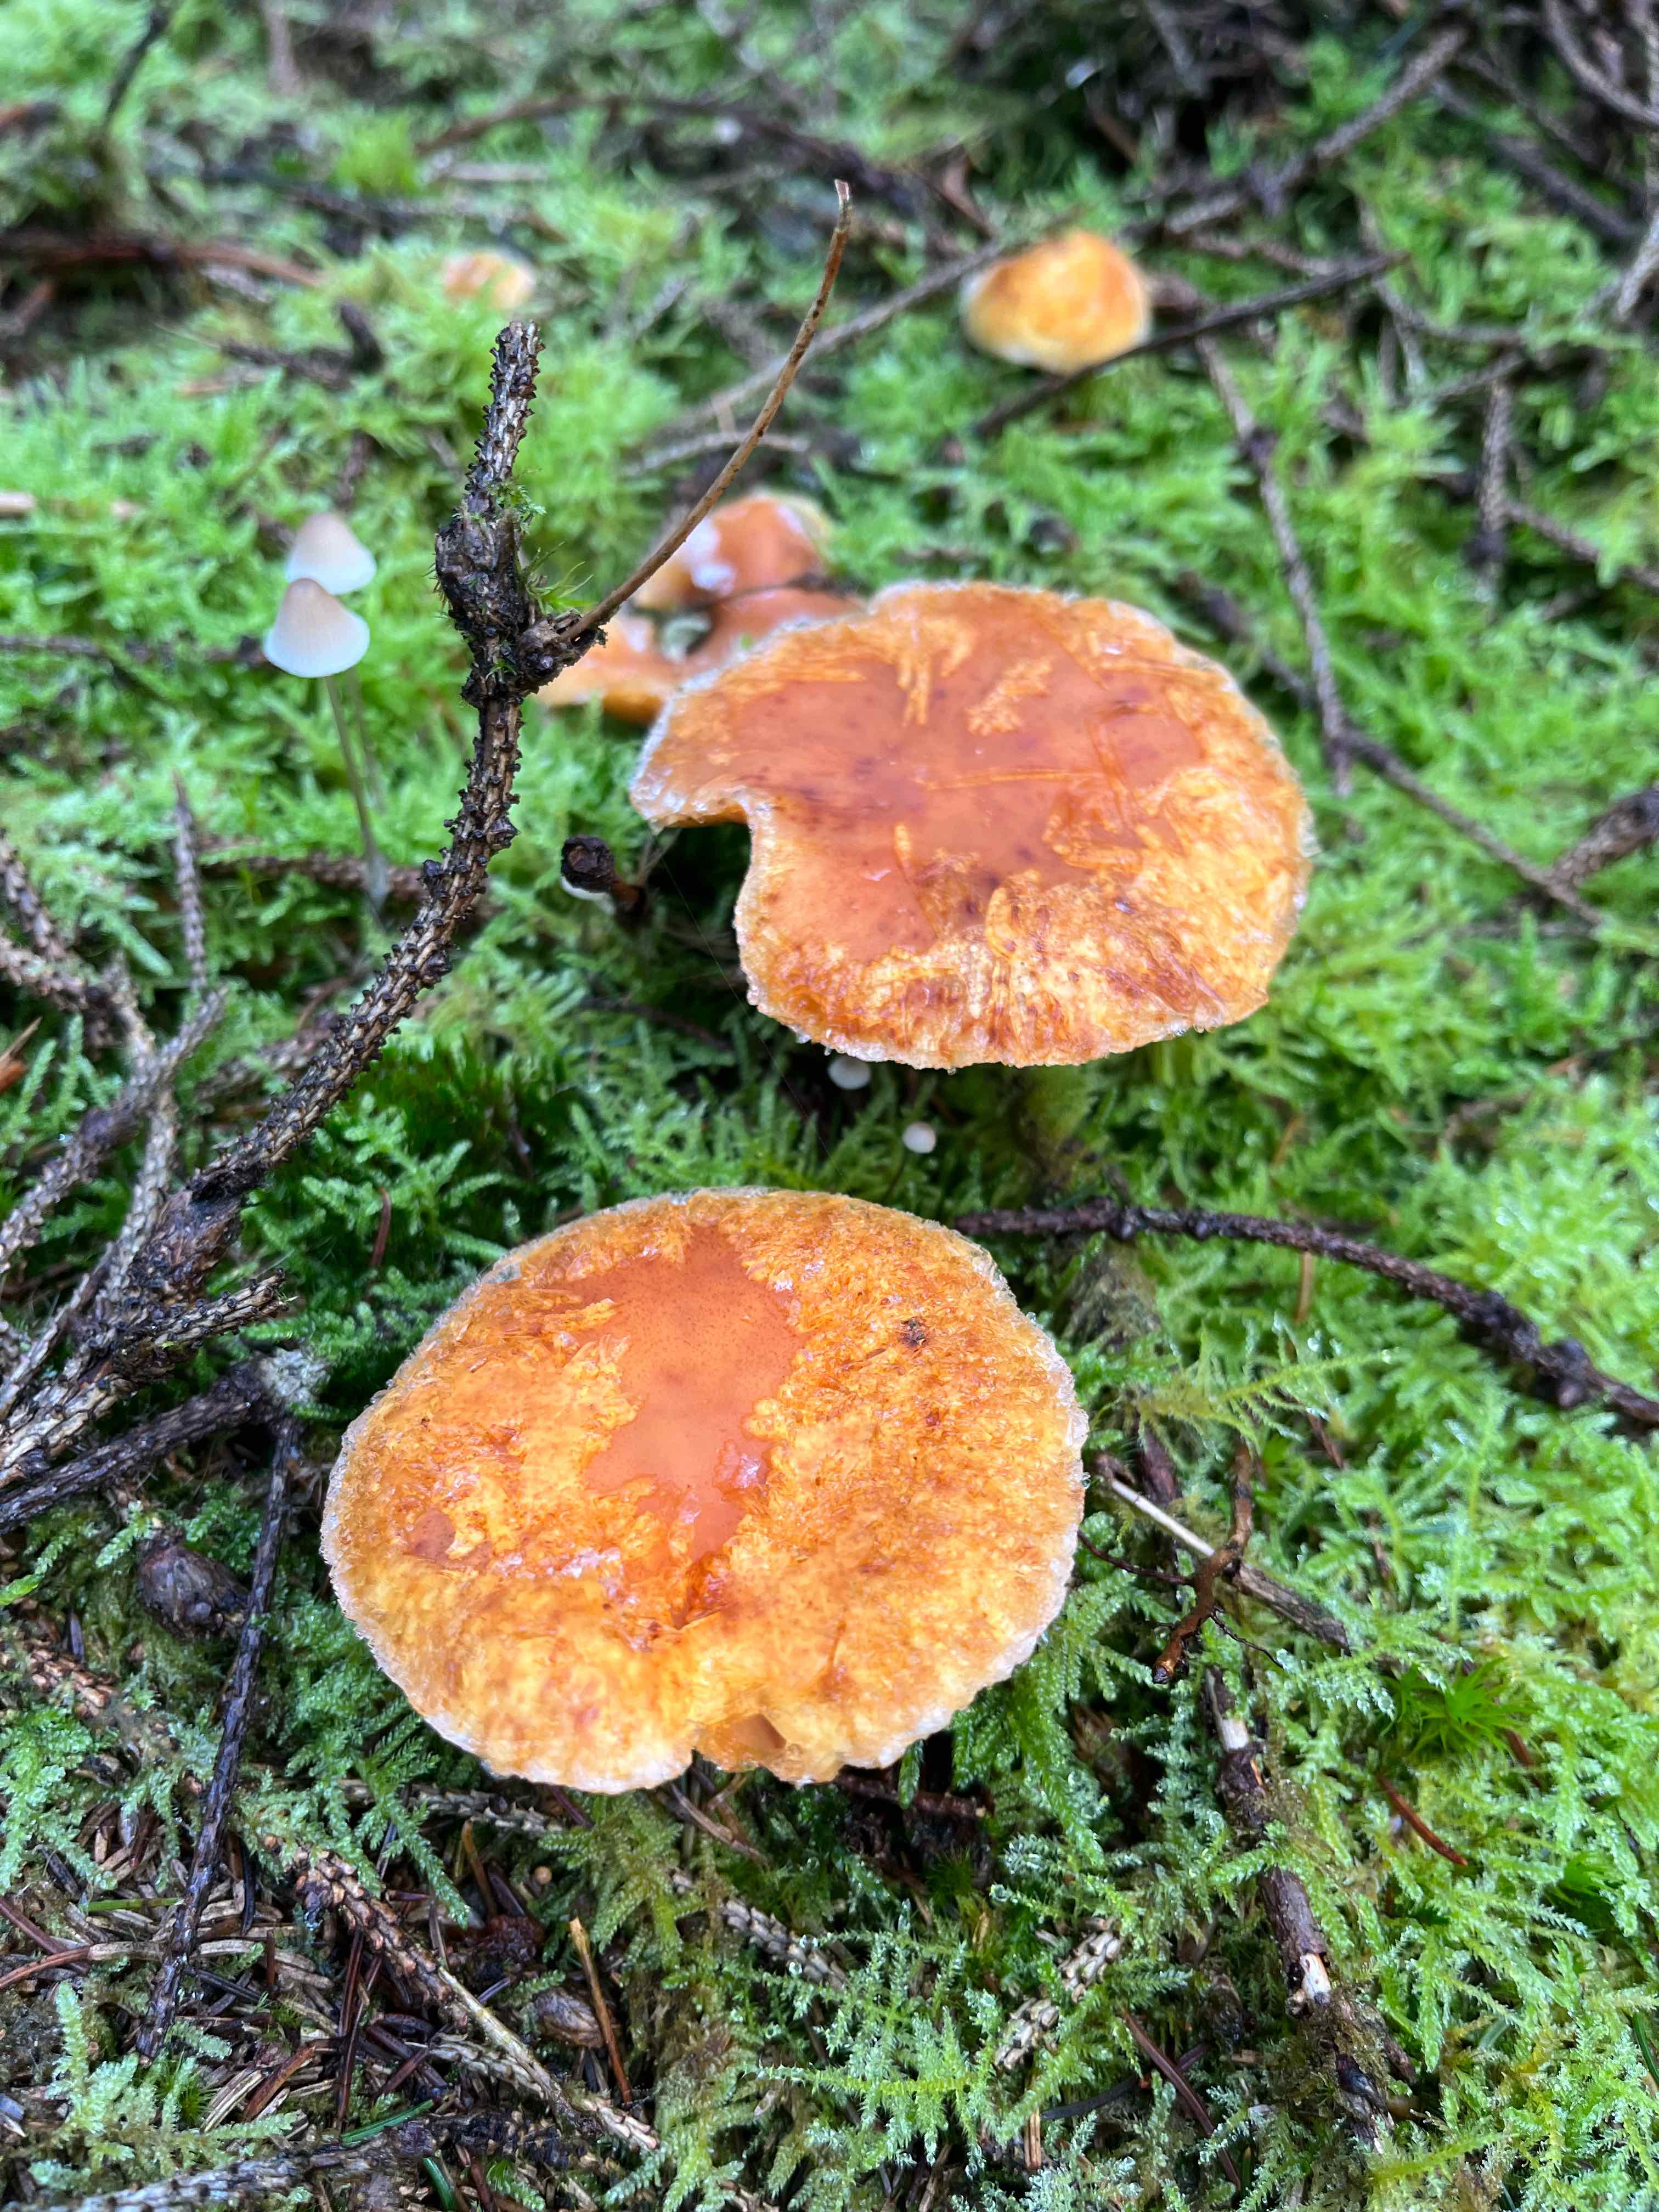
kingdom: Fungi
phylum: Basidiomycota
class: Agaricomycetes
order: Agaricales
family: Hymenogastraceae
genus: Gymnopilus
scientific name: Gymnopilus penetrans
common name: plettet flammehat
